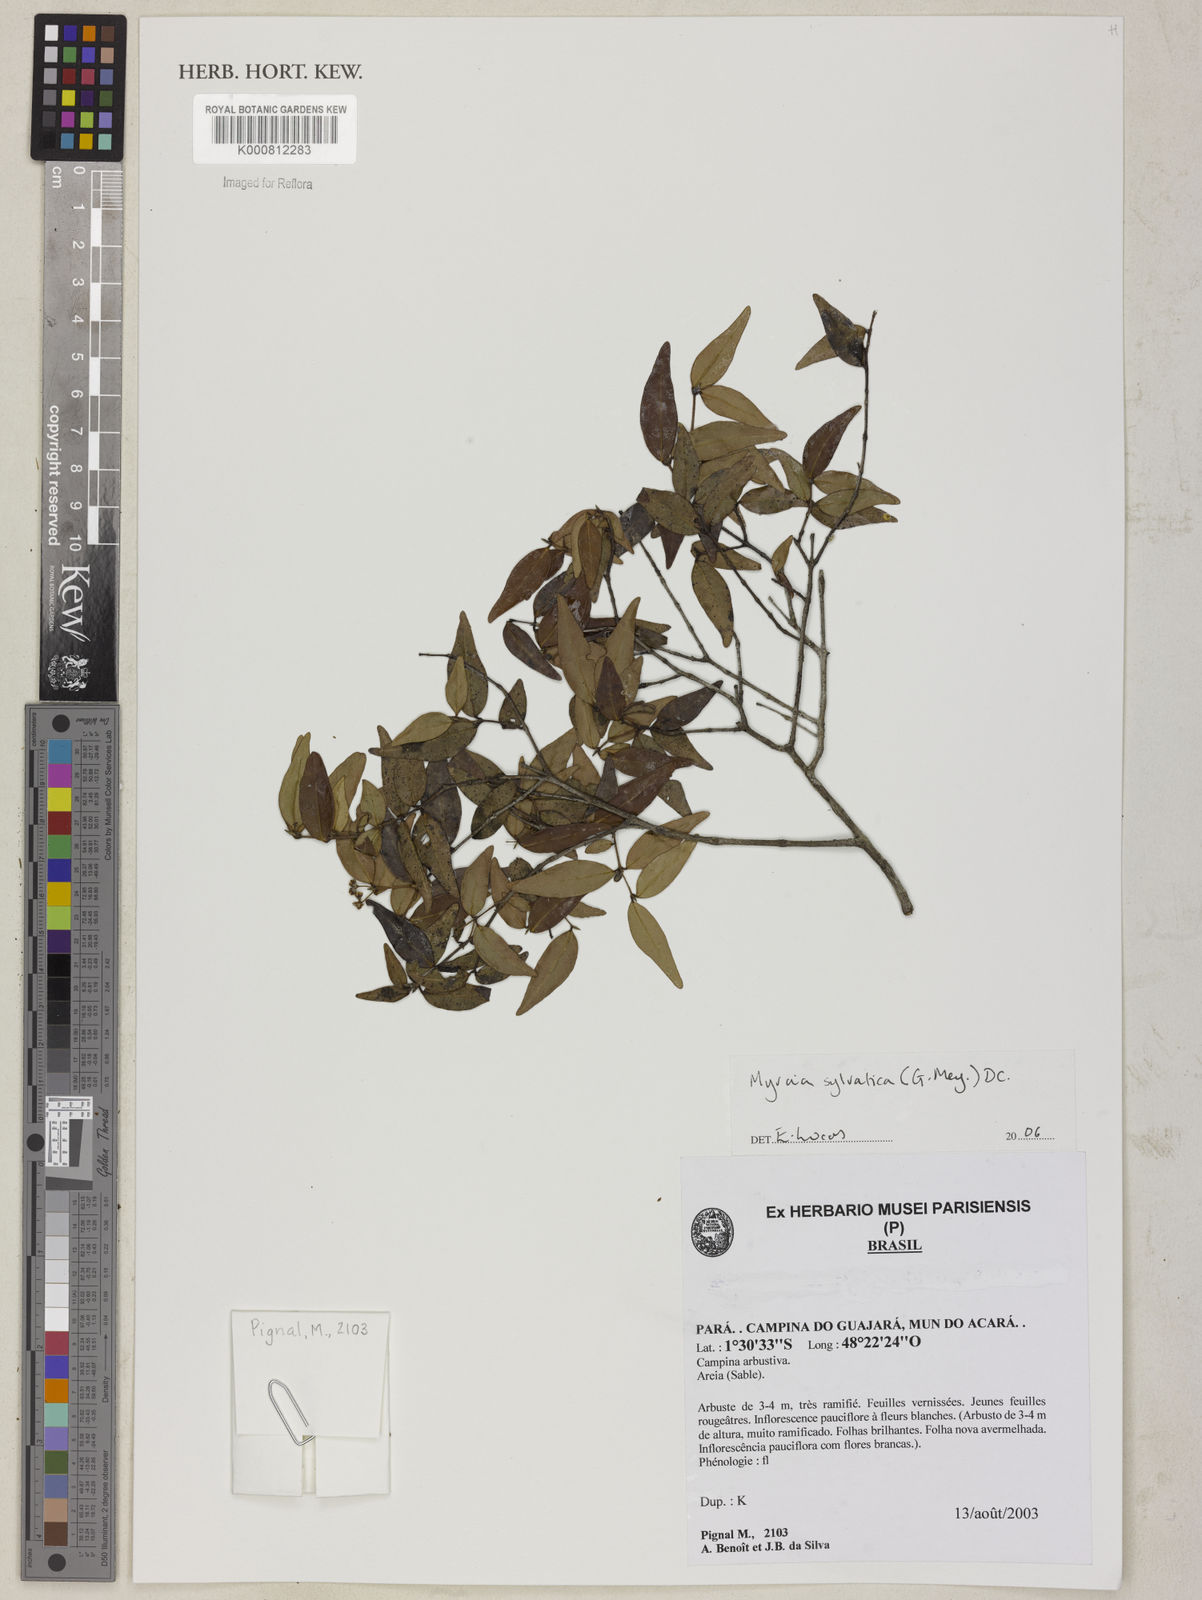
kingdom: Plantae
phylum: Tracheophyta
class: Magnoliopsida
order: Myrtales
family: Myrtaceae
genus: Myrcia
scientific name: Myrcia sylvatica
